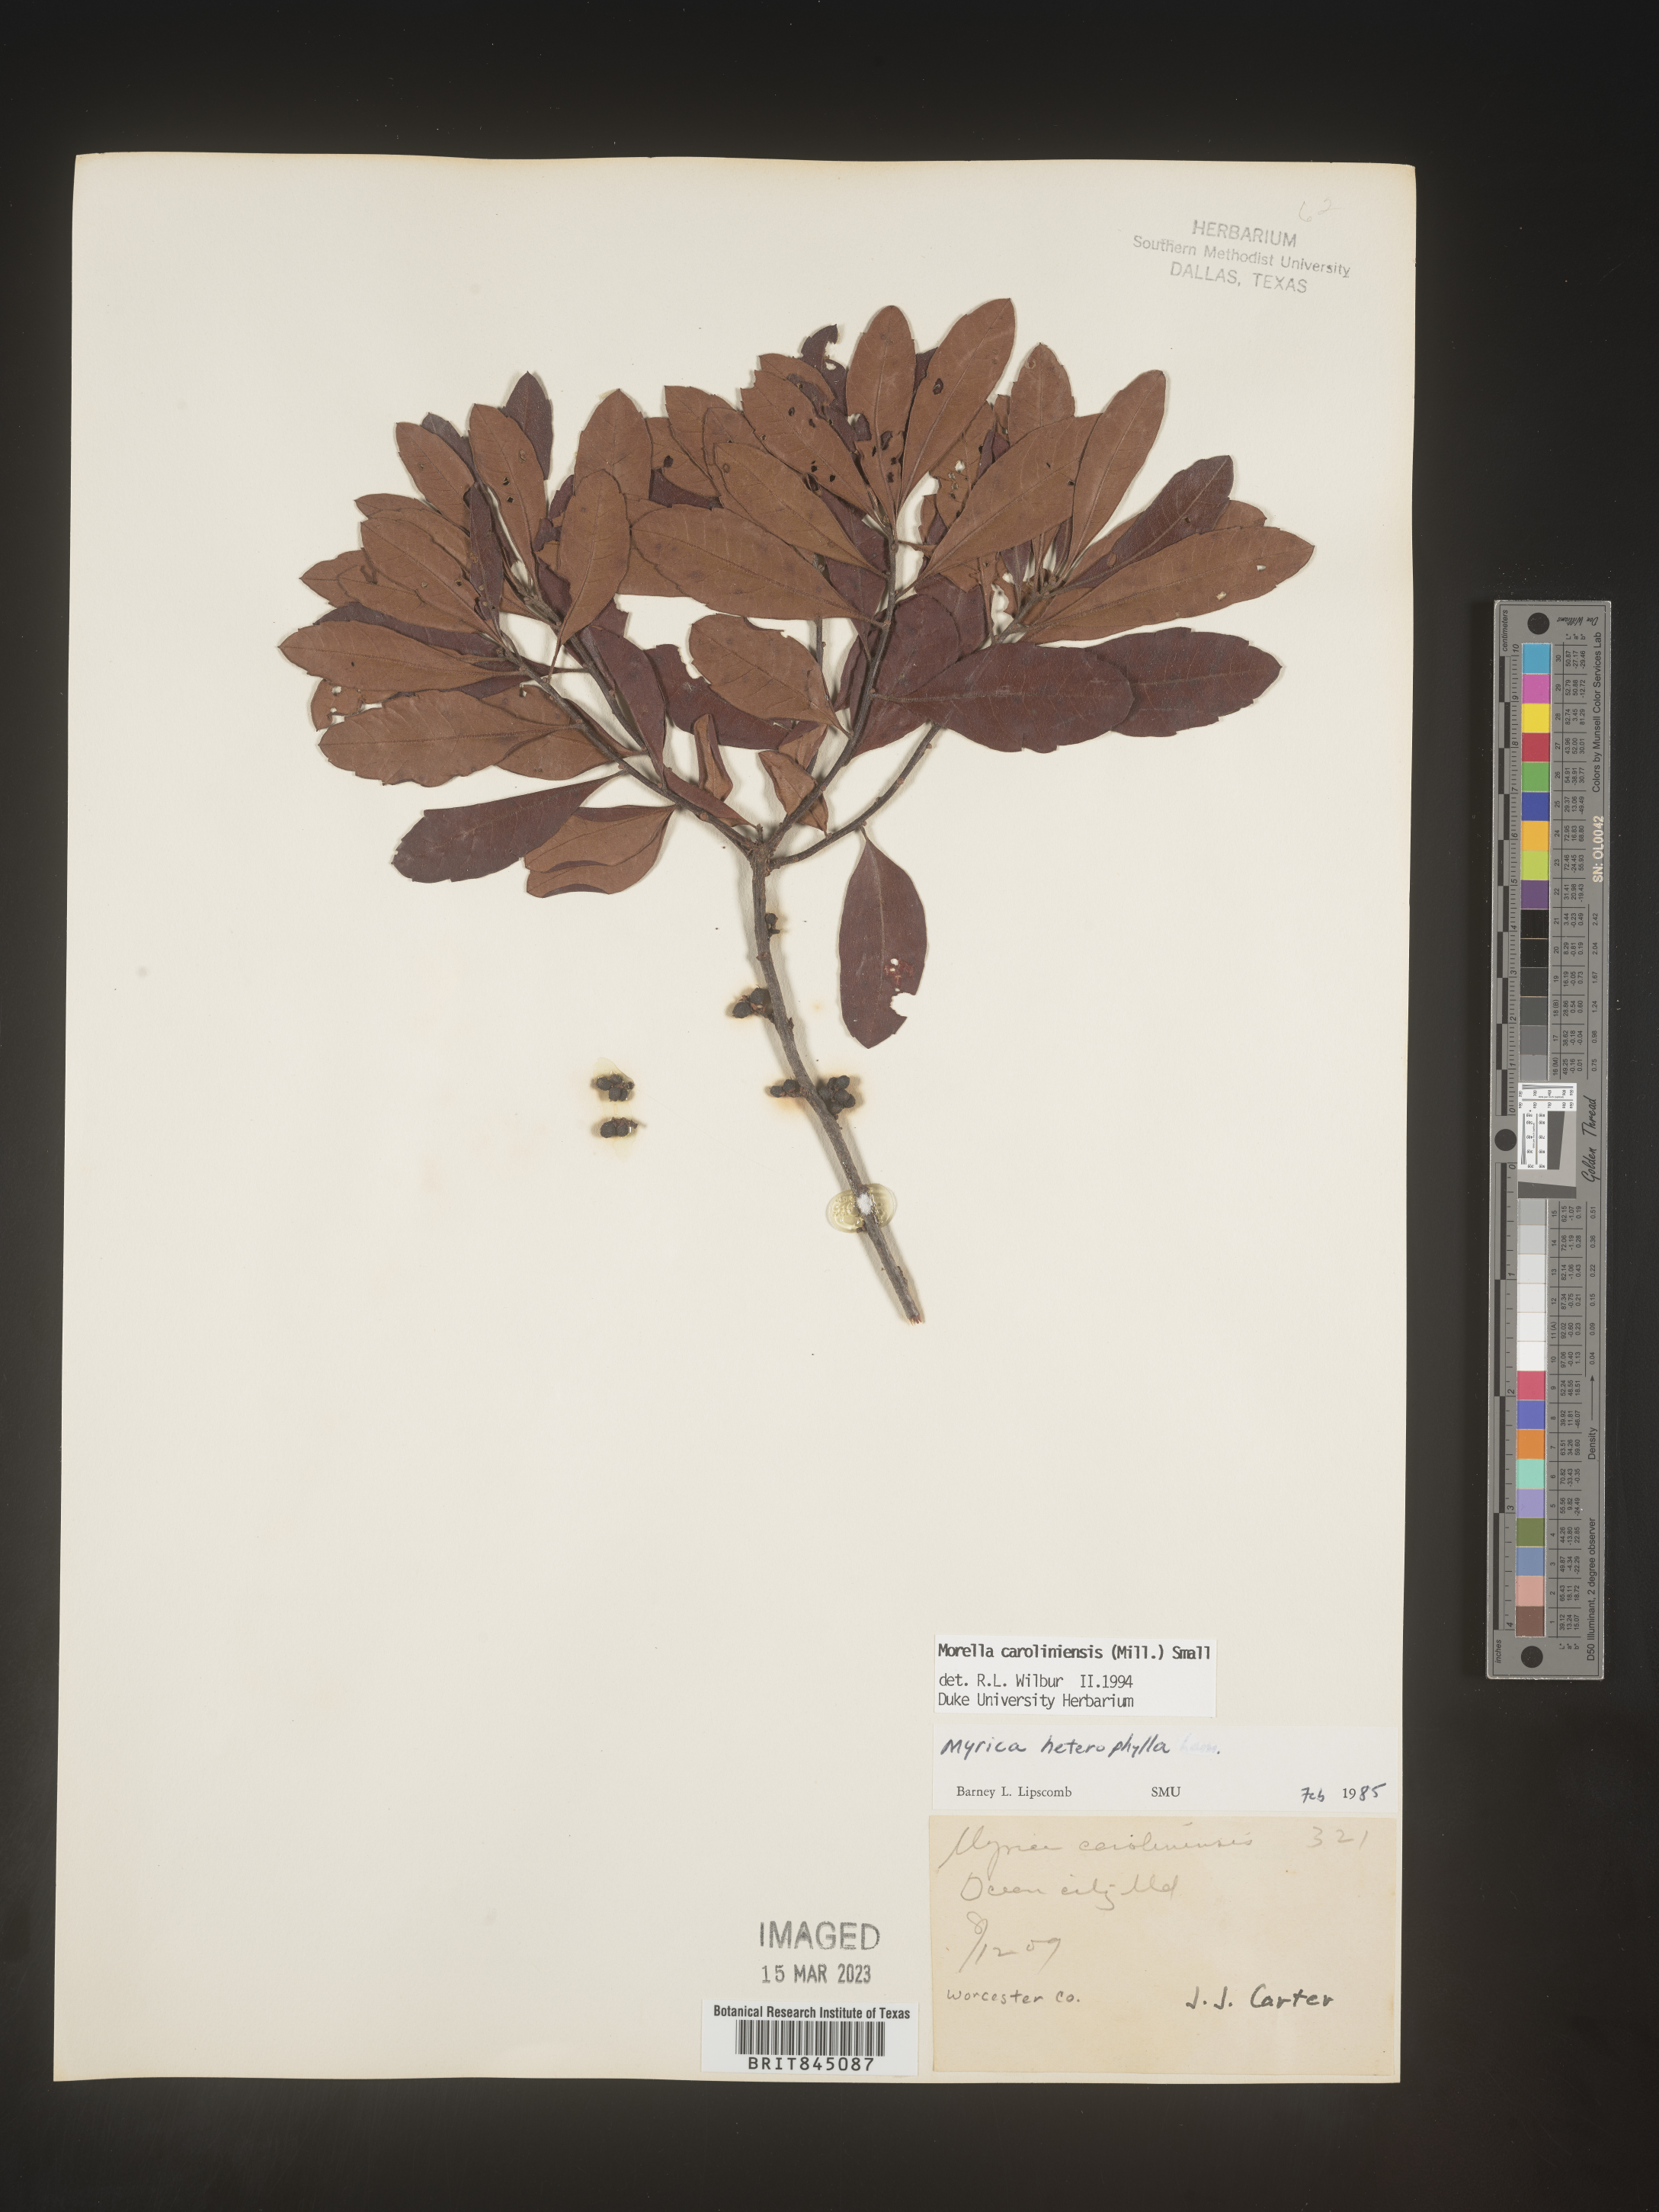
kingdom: Plantae
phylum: Tracheophyta
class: Magnoliopsida
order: Fagales
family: Myricaceae
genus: Morella
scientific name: Morella caroliniensis
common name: Evergreen bayberry
